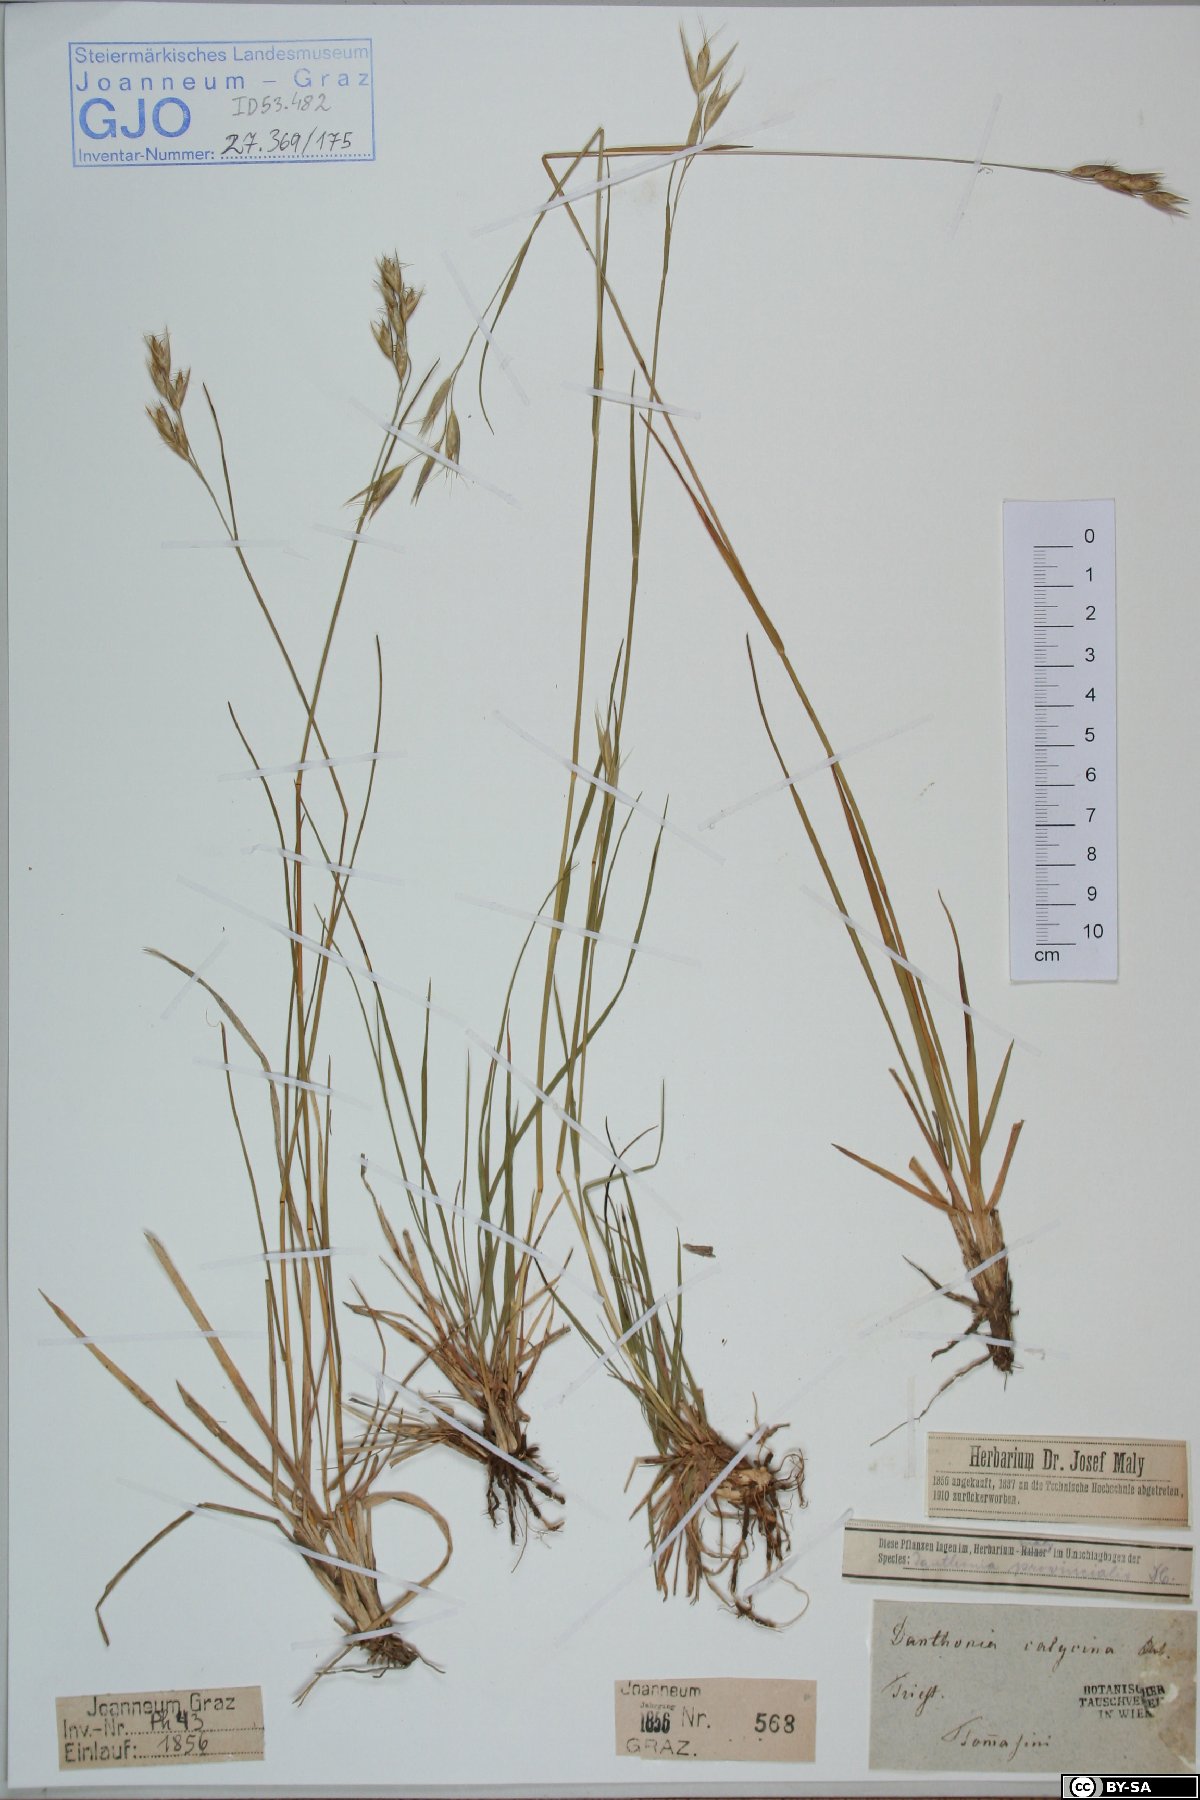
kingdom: Plantae
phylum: Tracheophyta
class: Liliopsida
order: Poales
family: Poaceae
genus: Danthonia
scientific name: Danthonia alpina
